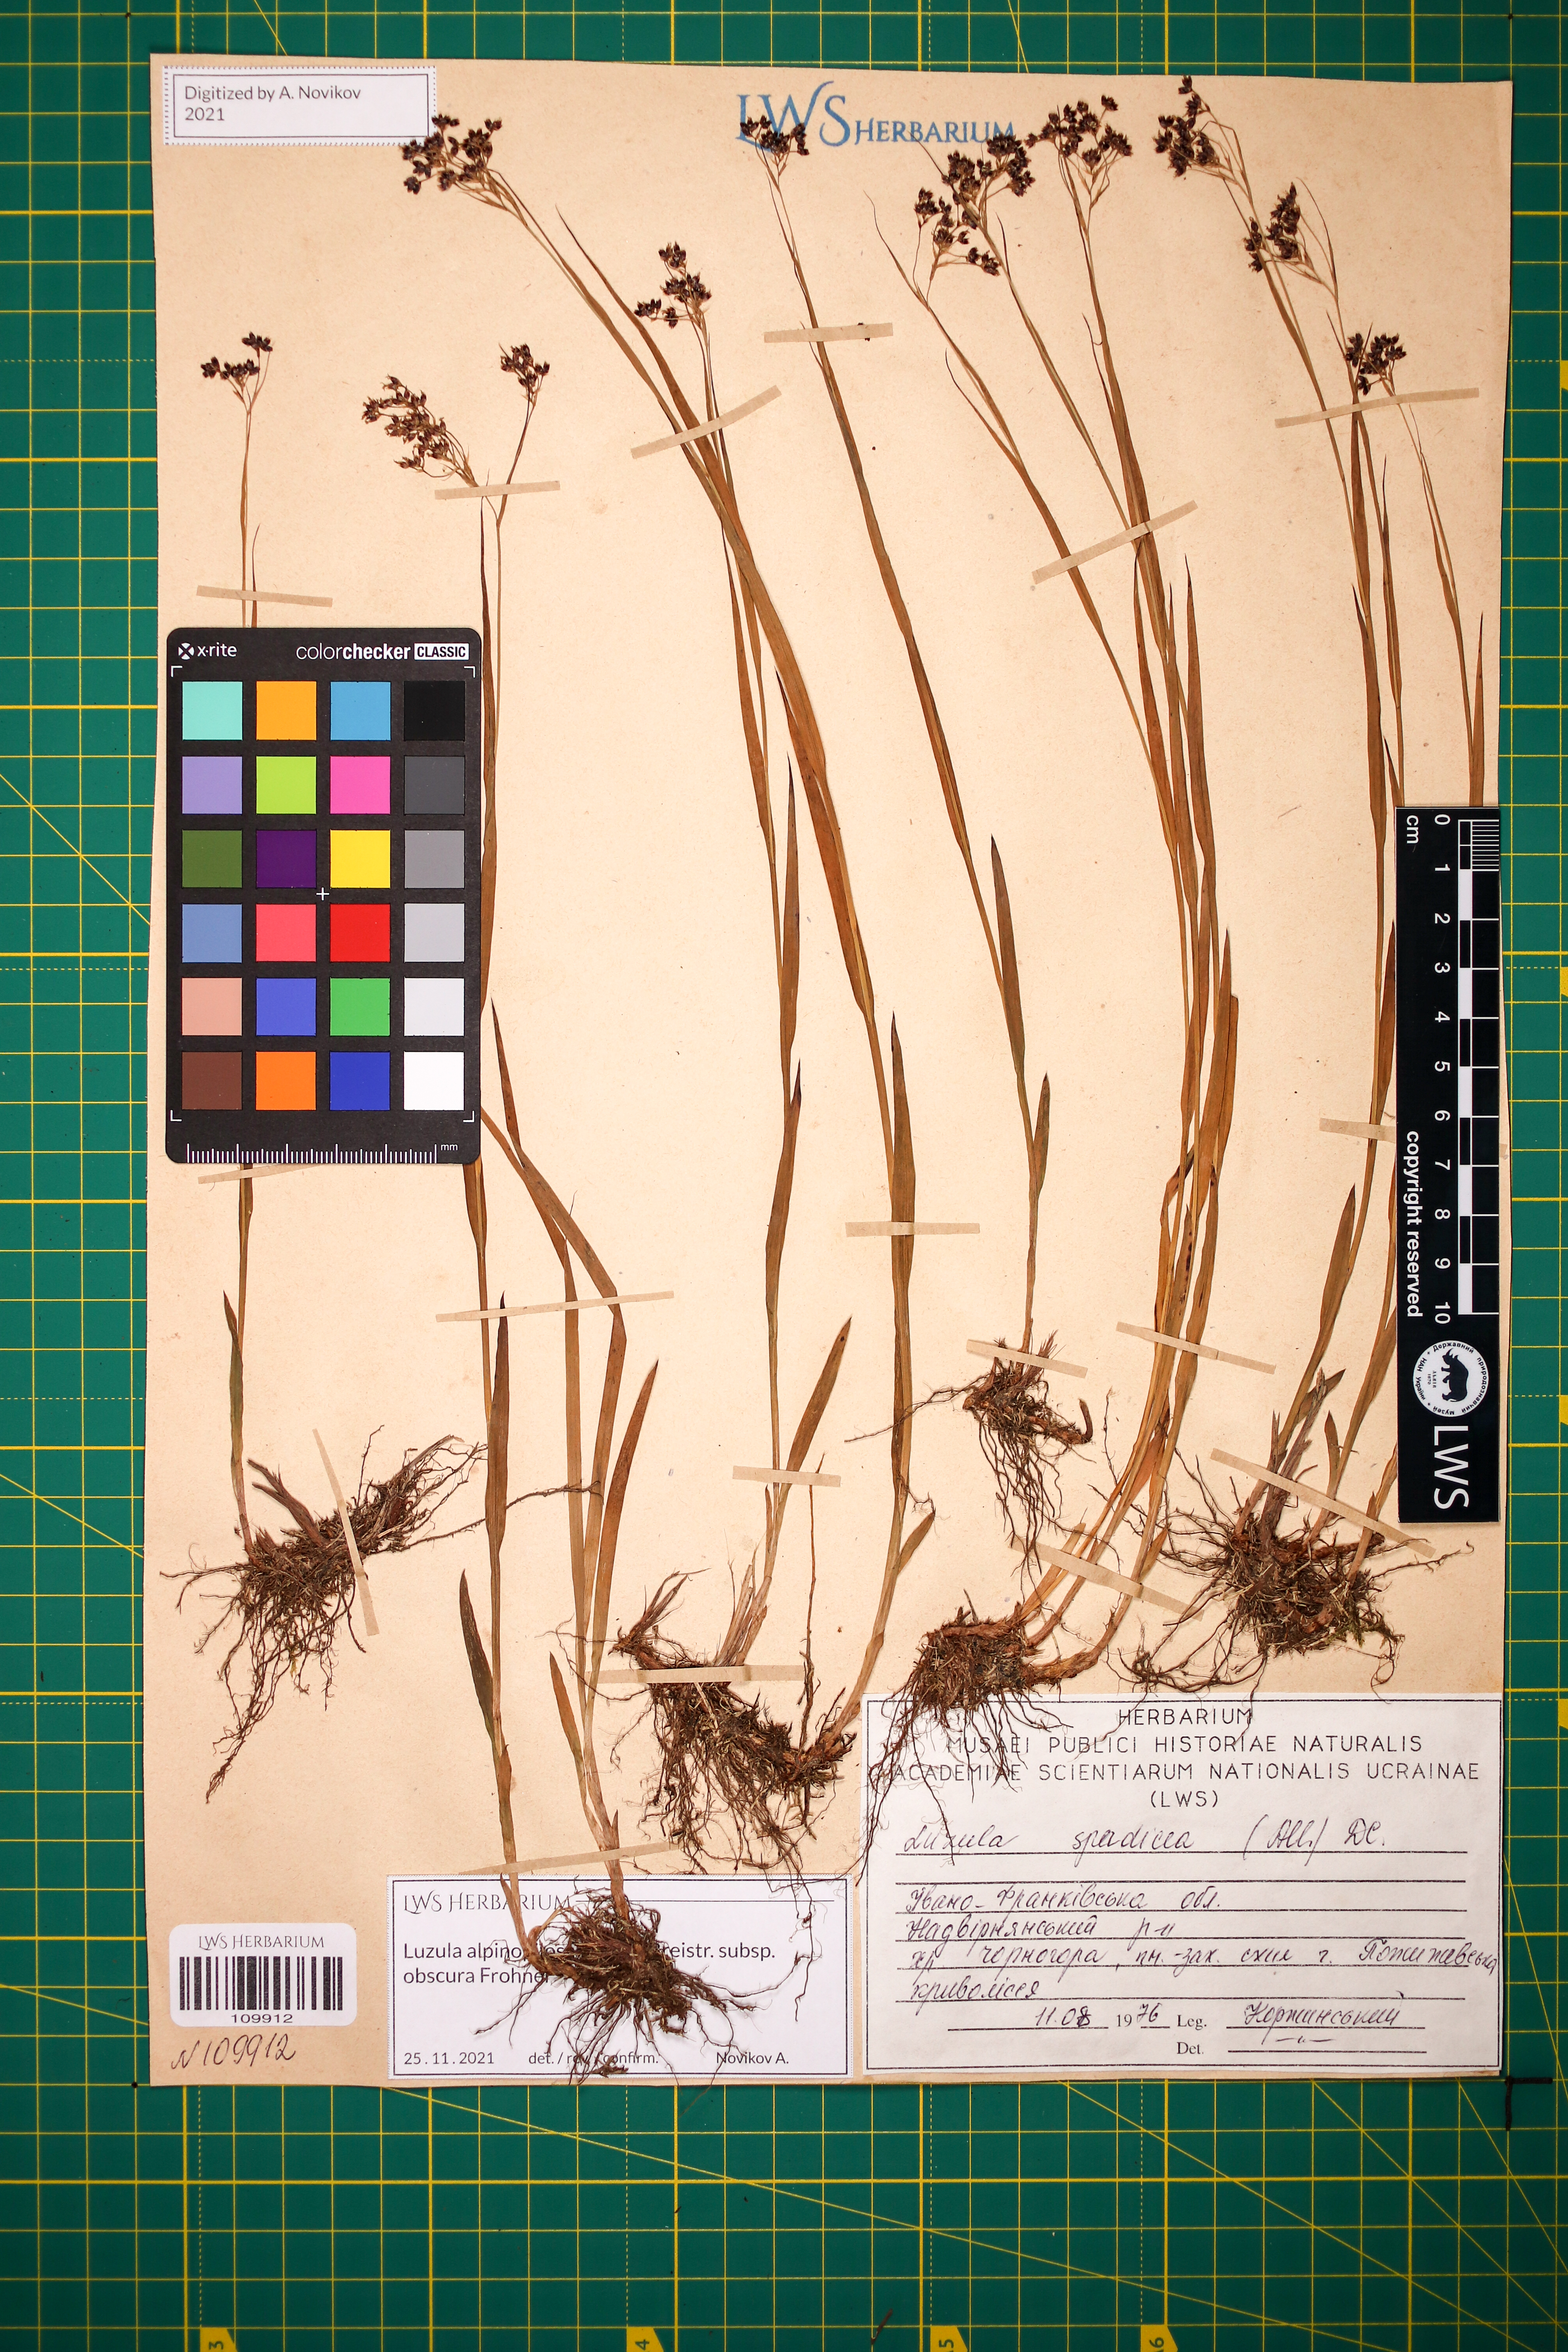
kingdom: Plantae
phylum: Tracheophyta
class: Liliopsida
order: Poales
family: Juncaceae
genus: Luzula
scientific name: Luzula alpinopilosa
